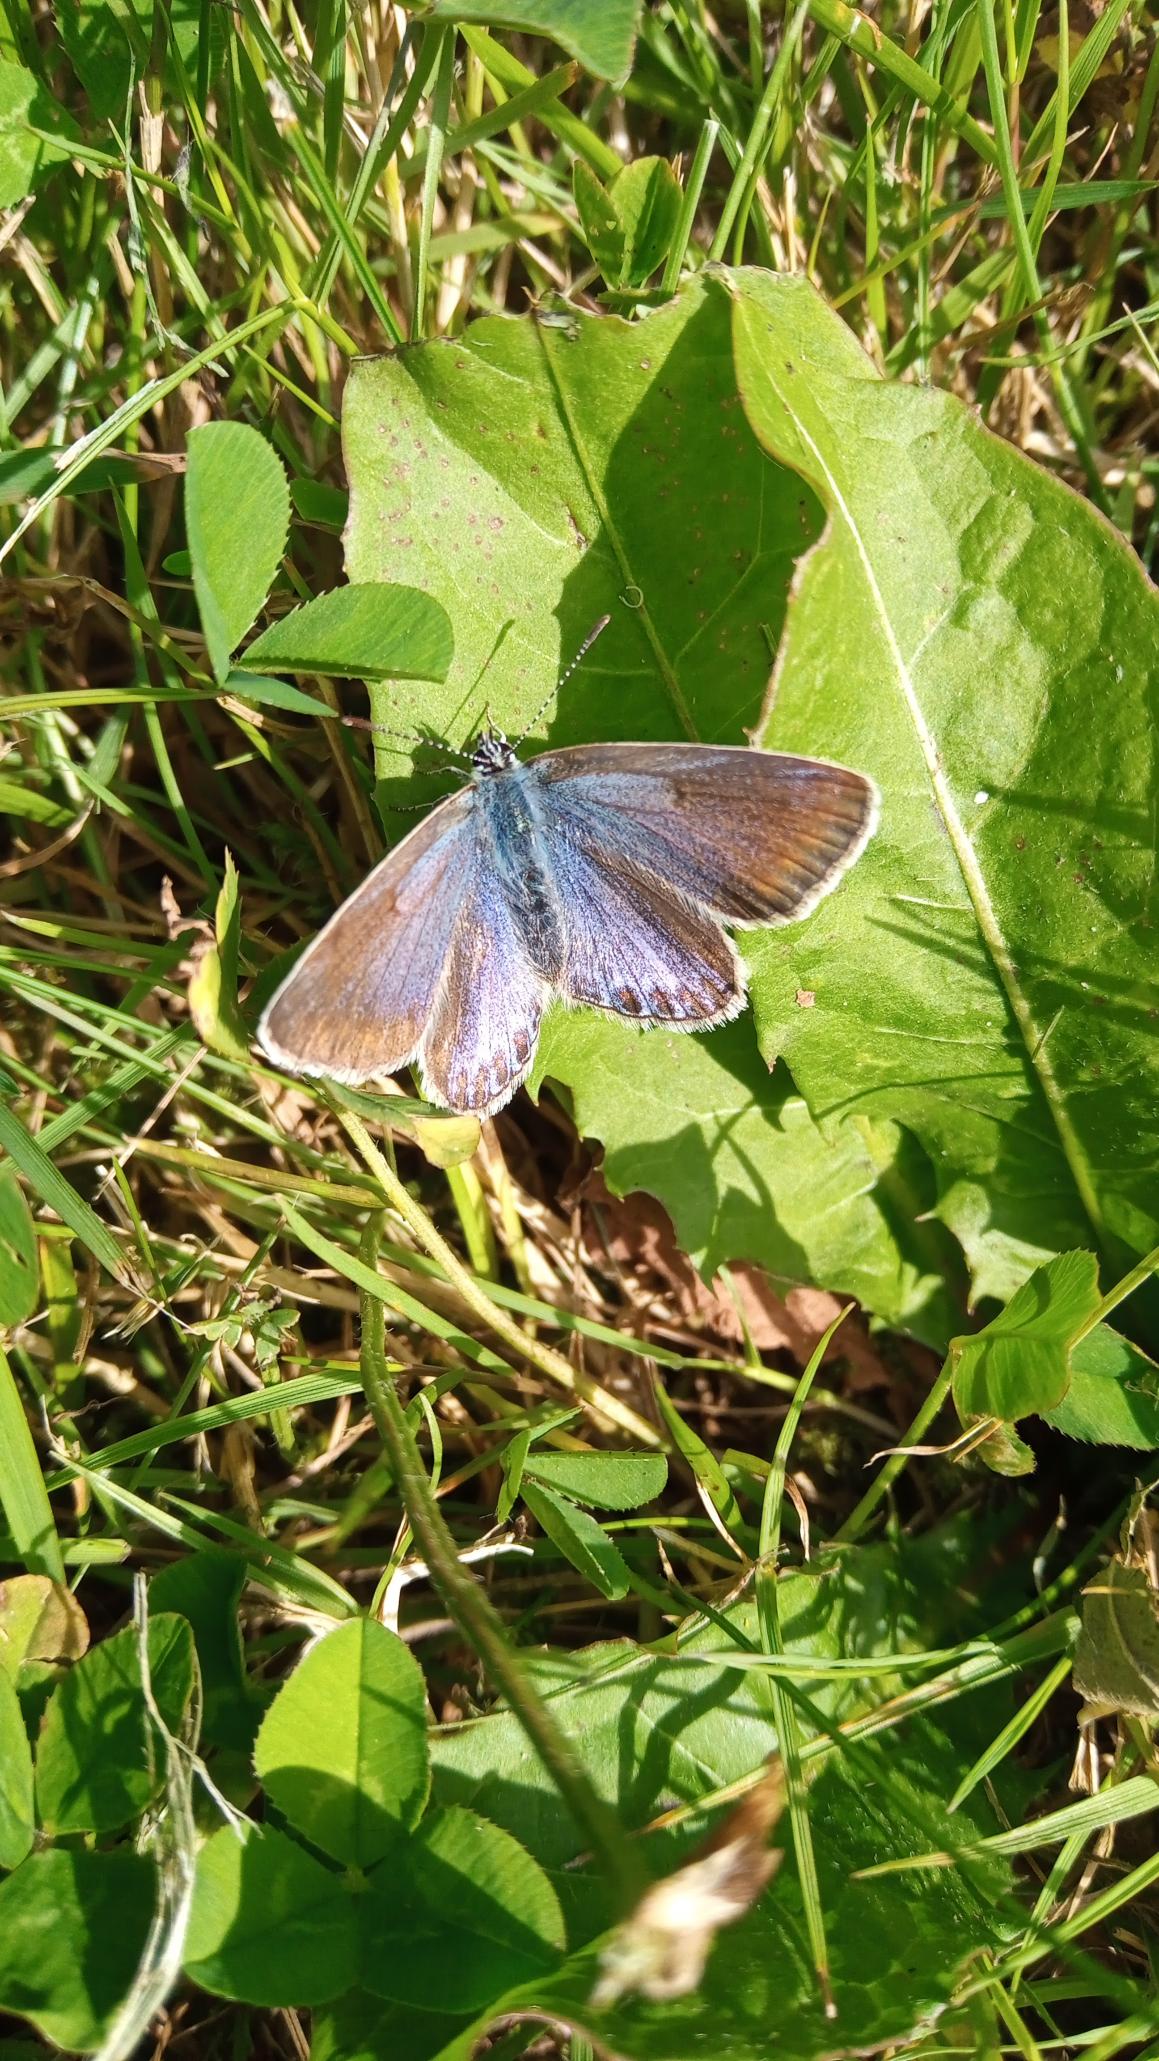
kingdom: Animalia
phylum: Arthropoda
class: Insecta
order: Lepidoptera
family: Lycaenidae
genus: Polyommatus
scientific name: Polyommatus icarus
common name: Almindelig blåfugl
